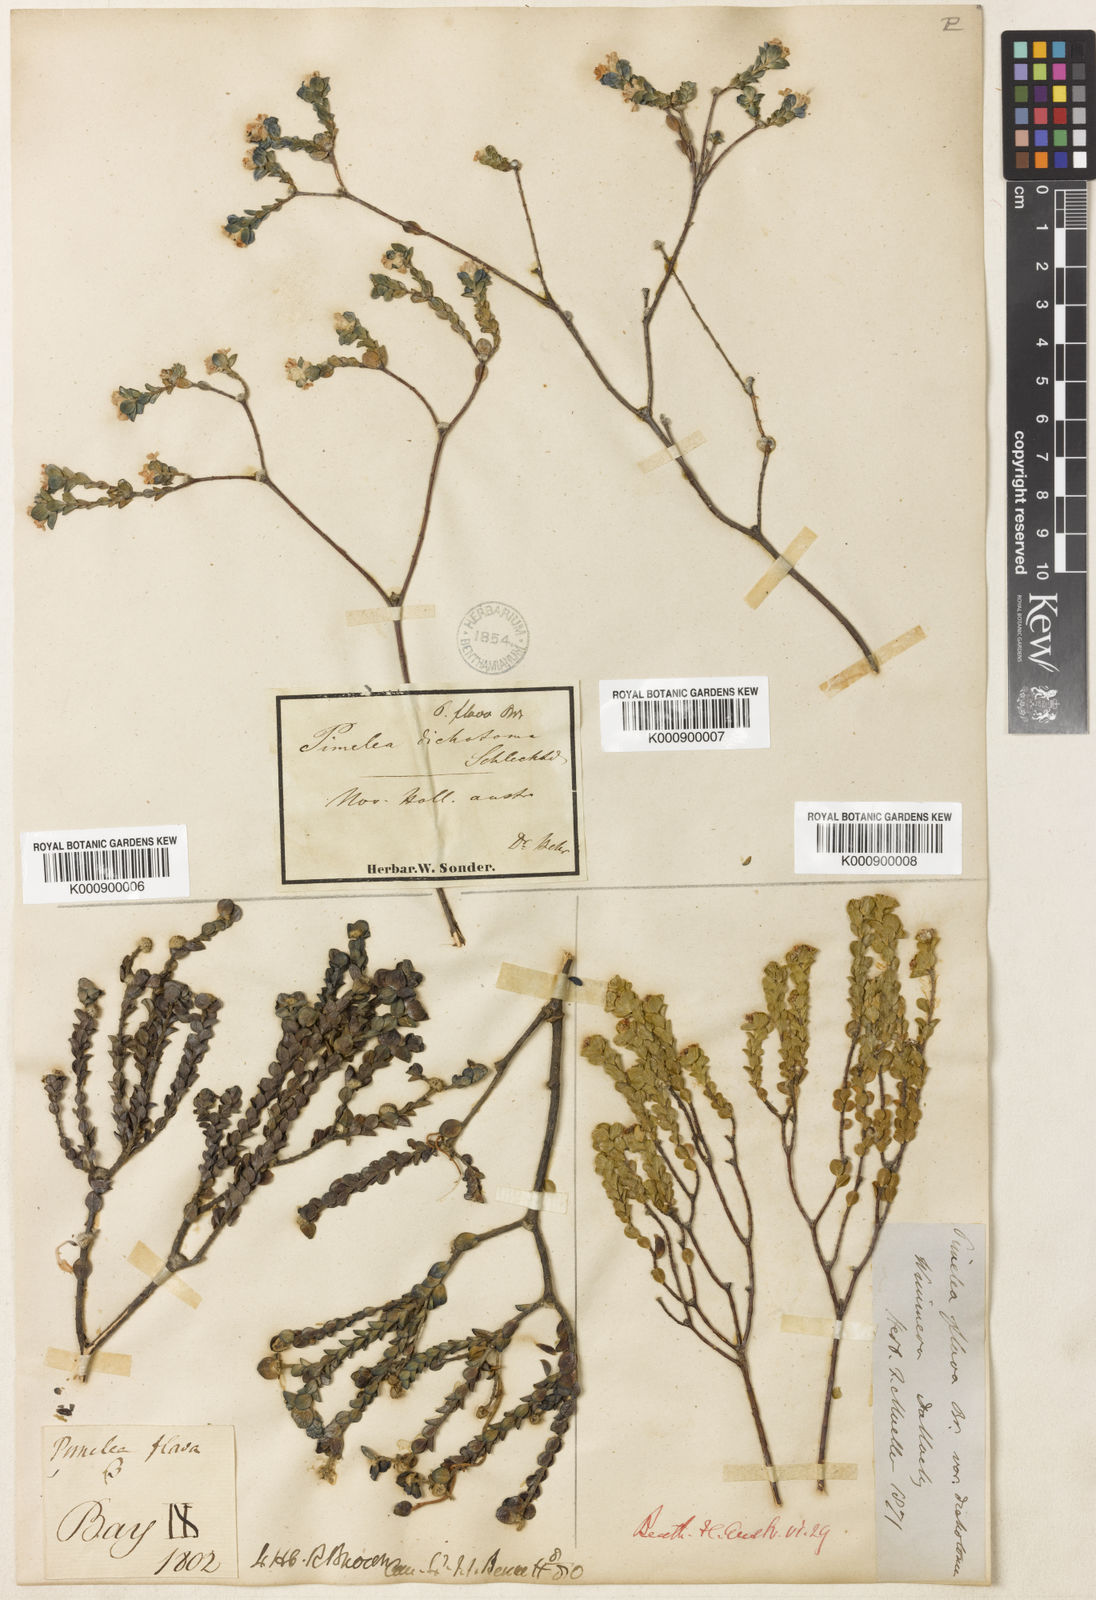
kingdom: Plantae
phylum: Tracheophyta
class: Magnoliopsida
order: Malvales
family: Thymelaeaceae
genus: Pimelea
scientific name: Pimelea flava
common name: Yellow riceflower
